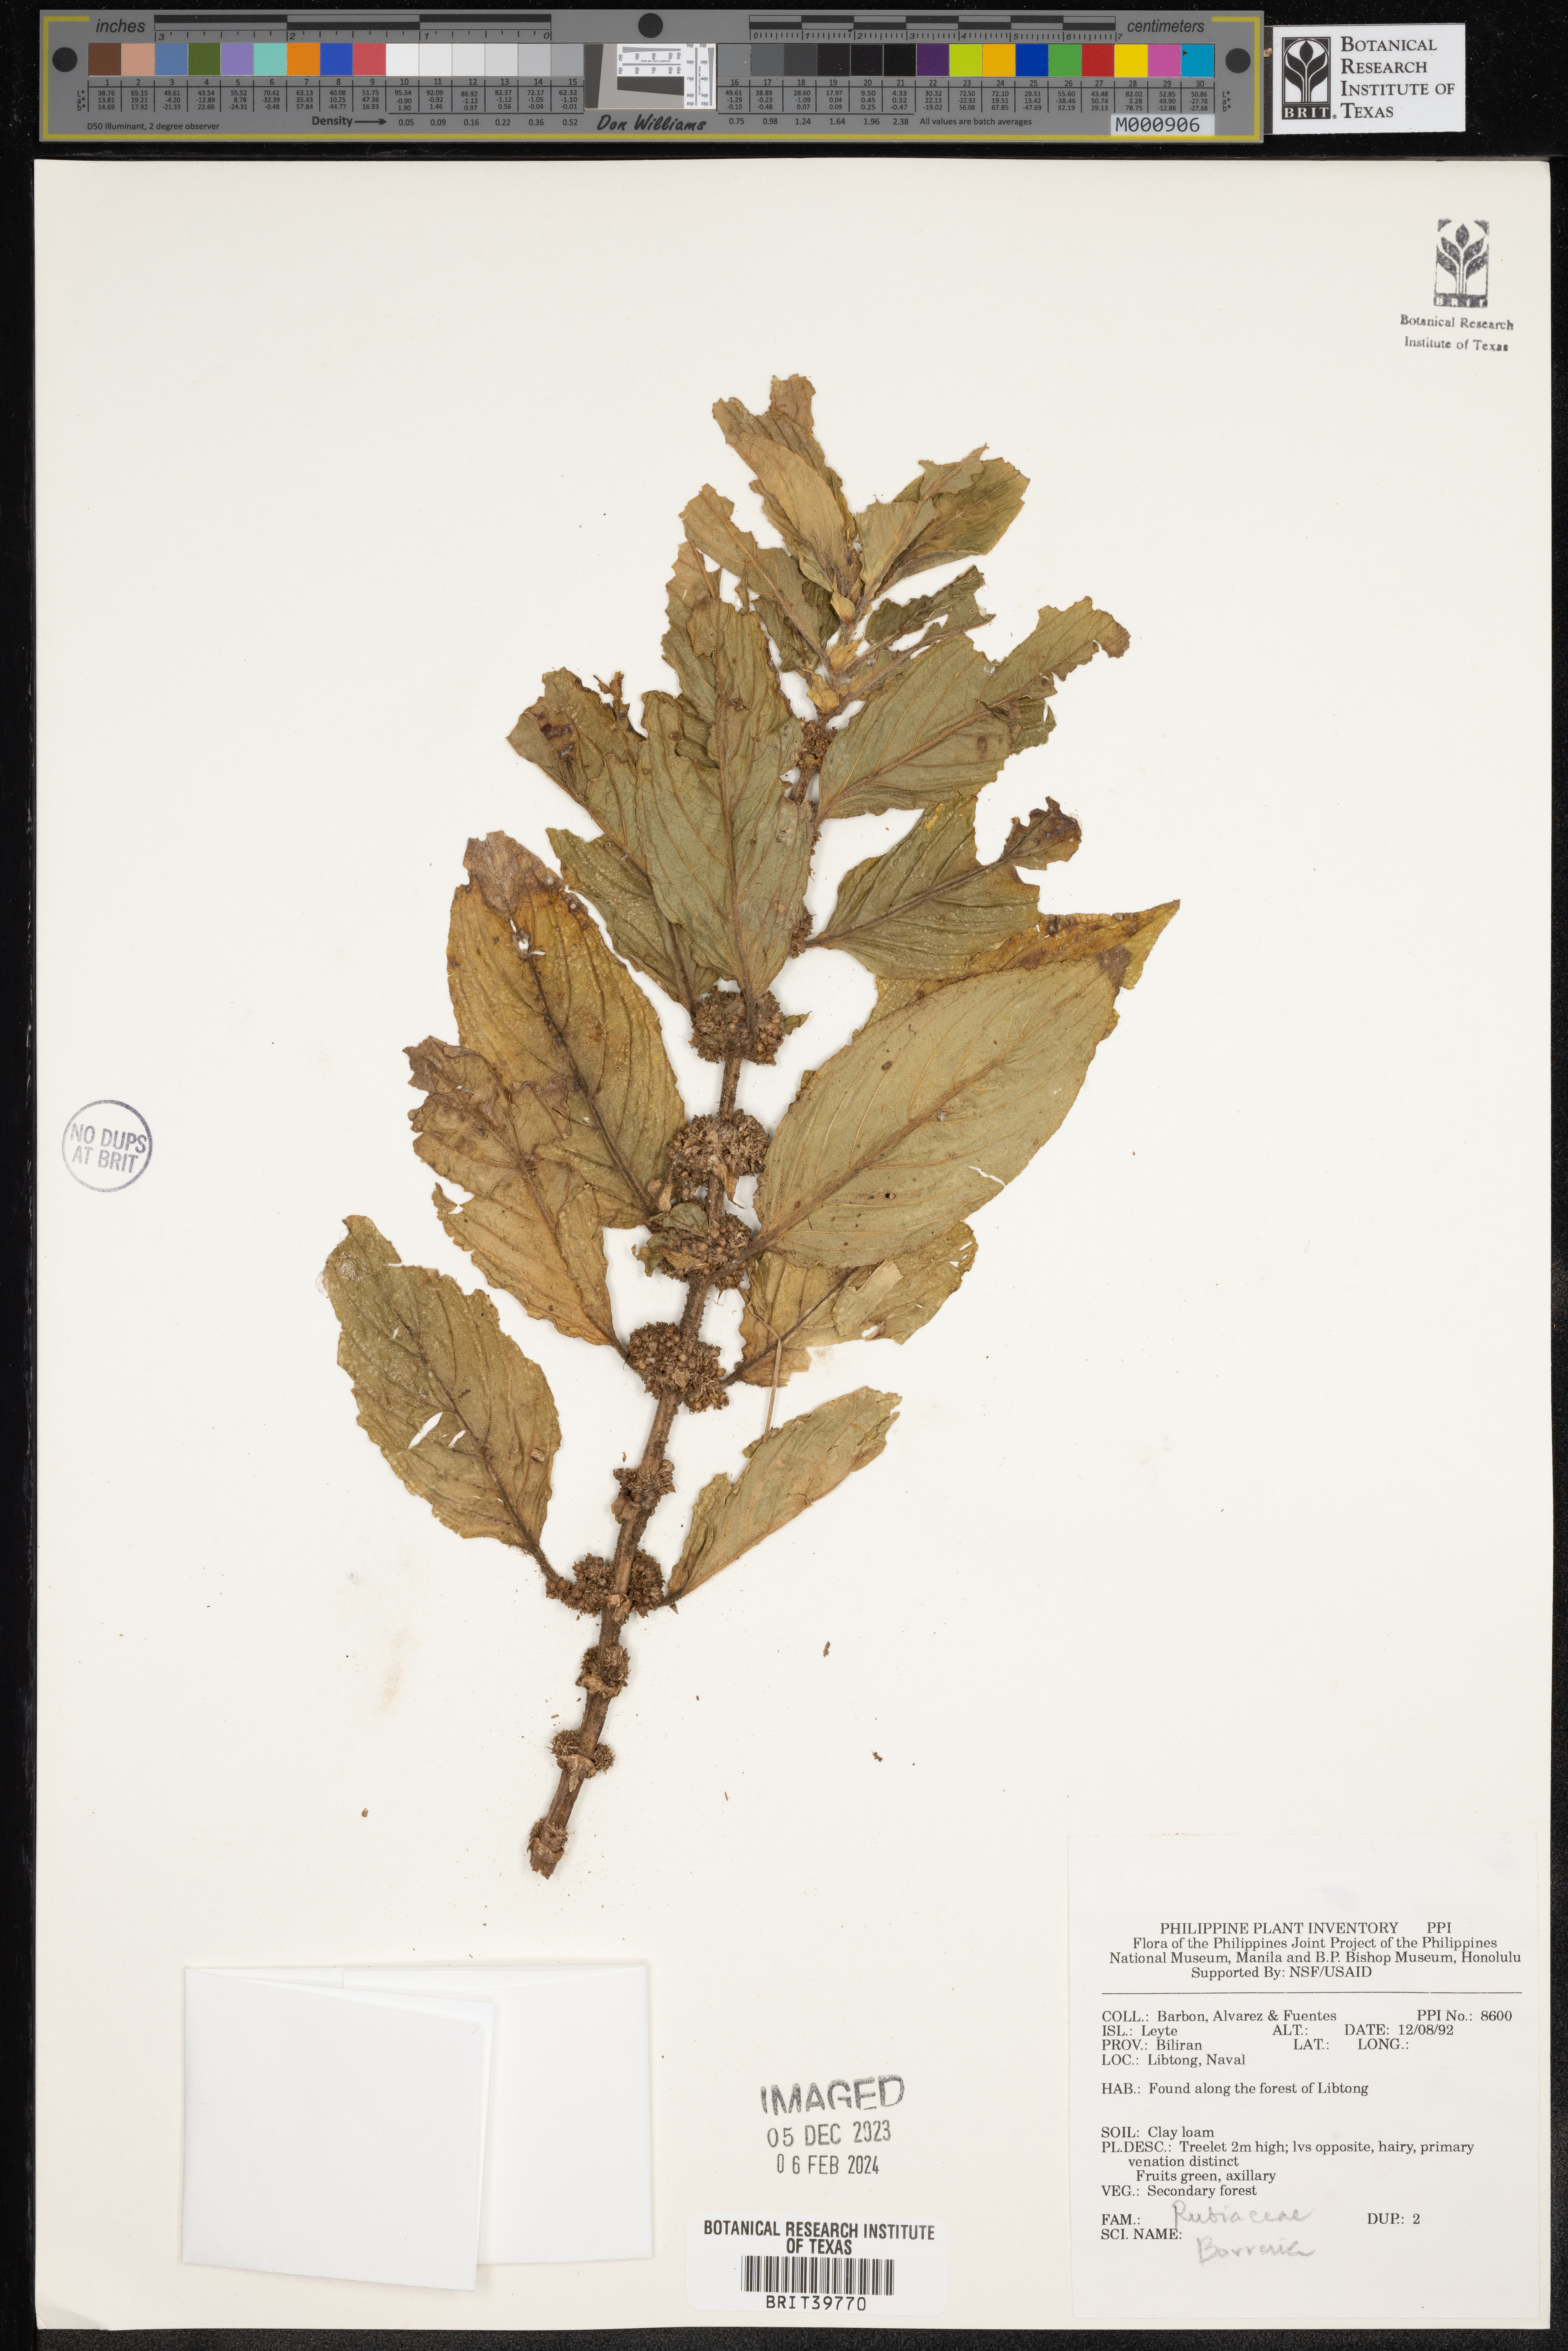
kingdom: Plantae
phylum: Tracheophyta
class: Magnoliopsida
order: Gentianales
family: Rubiaceae
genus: Spermacoce
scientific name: Spermacoce
